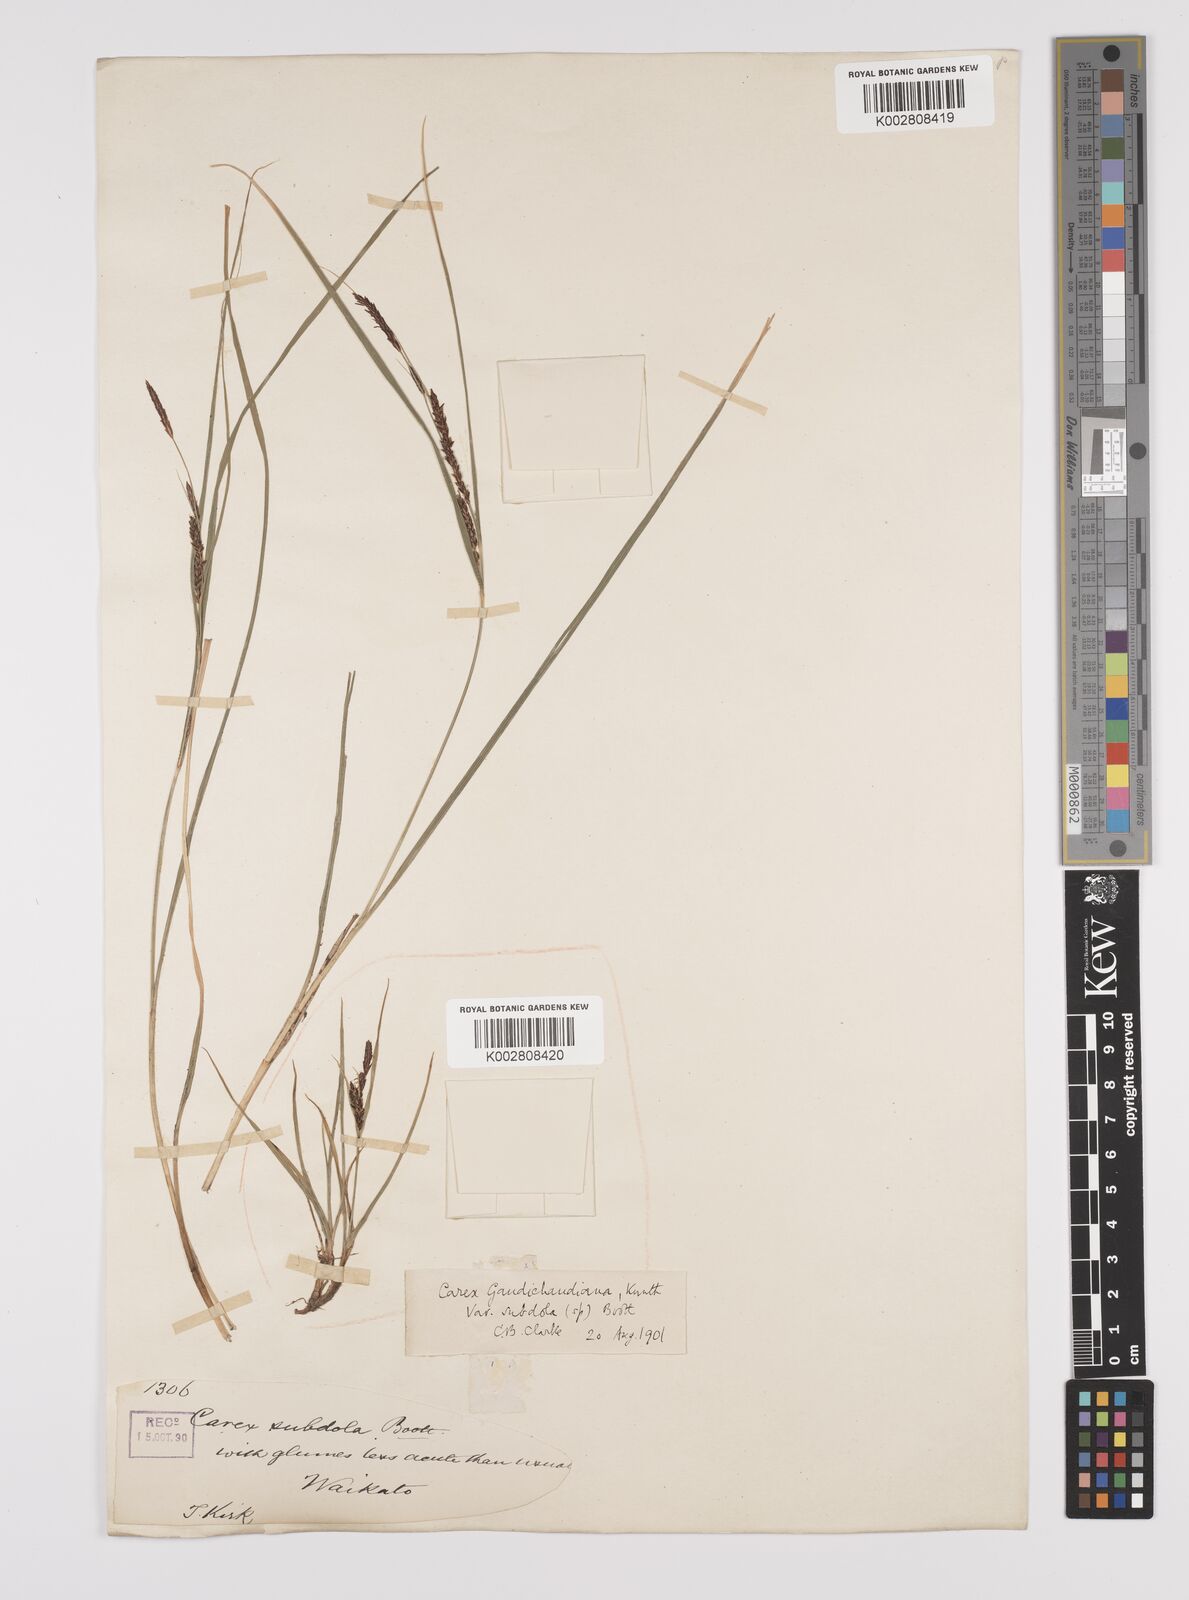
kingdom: Plantae
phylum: Tracheophyta
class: Liliopsida
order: Poales
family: Cyperaceae
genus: Carex
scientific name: Carex subdola
